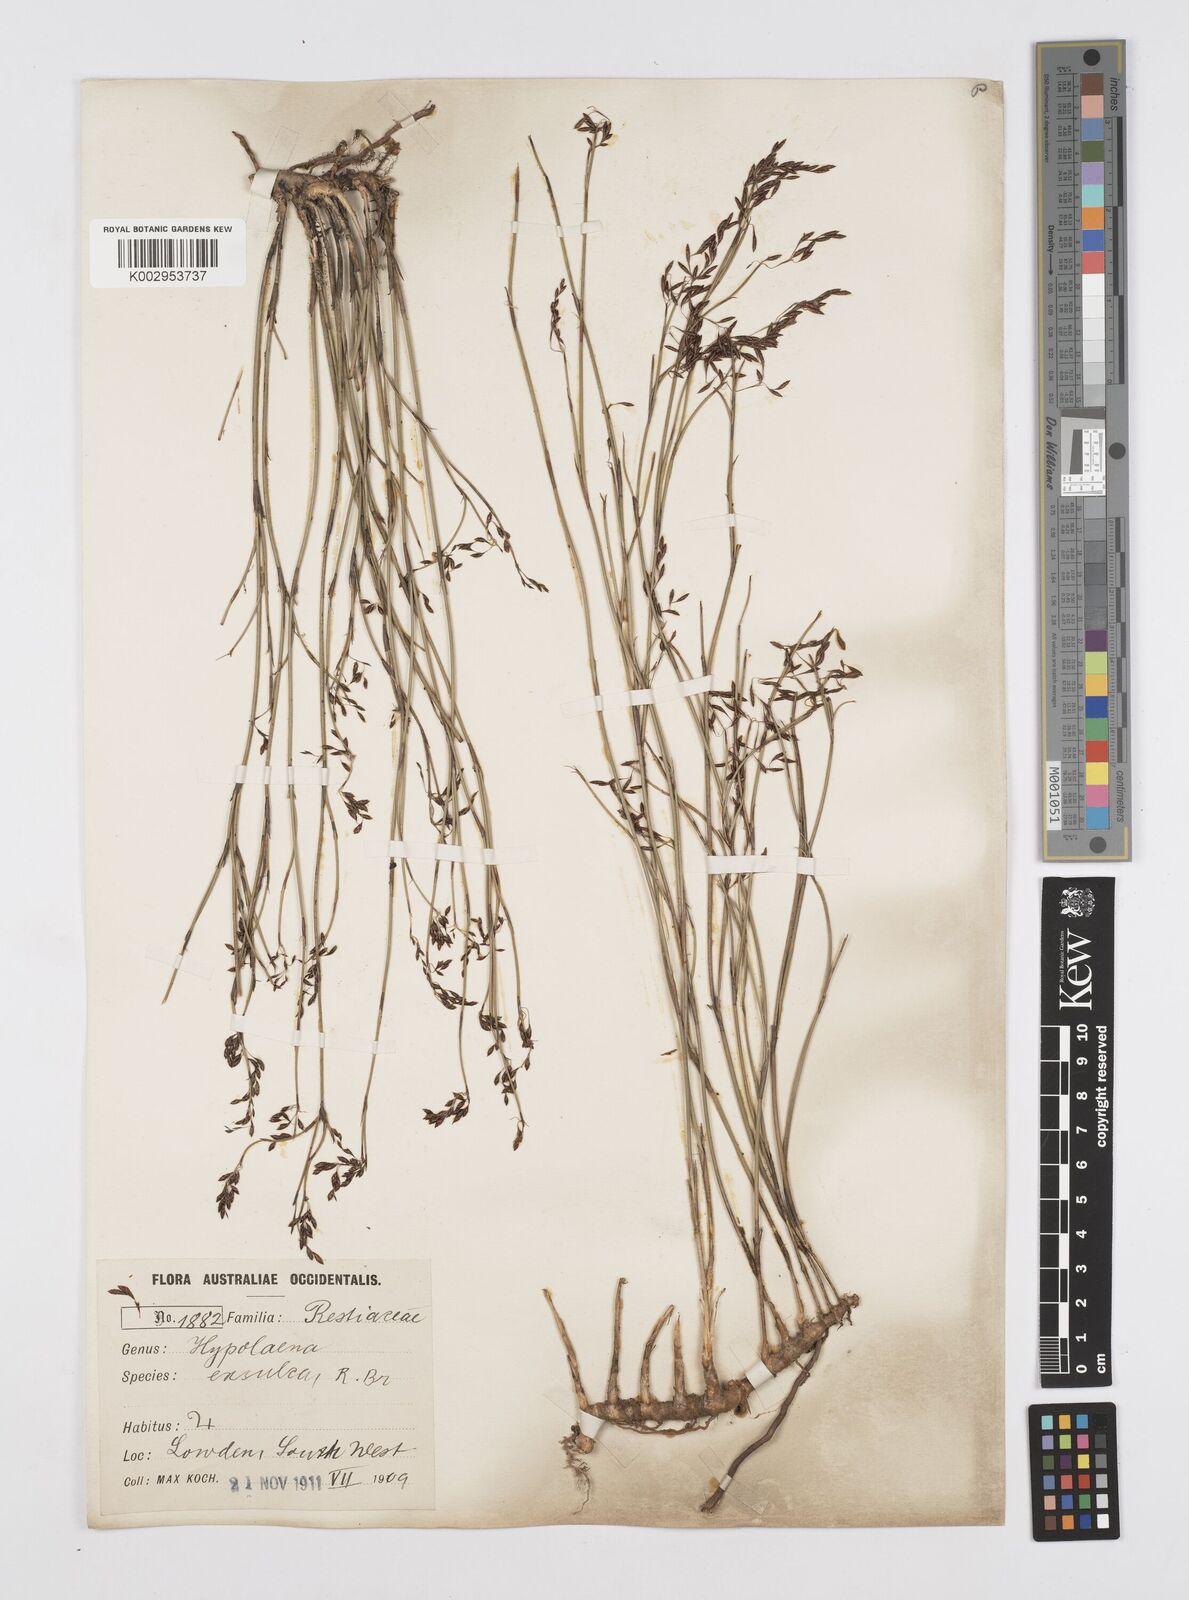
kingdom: Plantae
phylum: Tracheophyta
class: Liliopsida
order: Poales
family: Restionaceae
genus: Hypolaena
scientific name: Hypolaena exsulca
